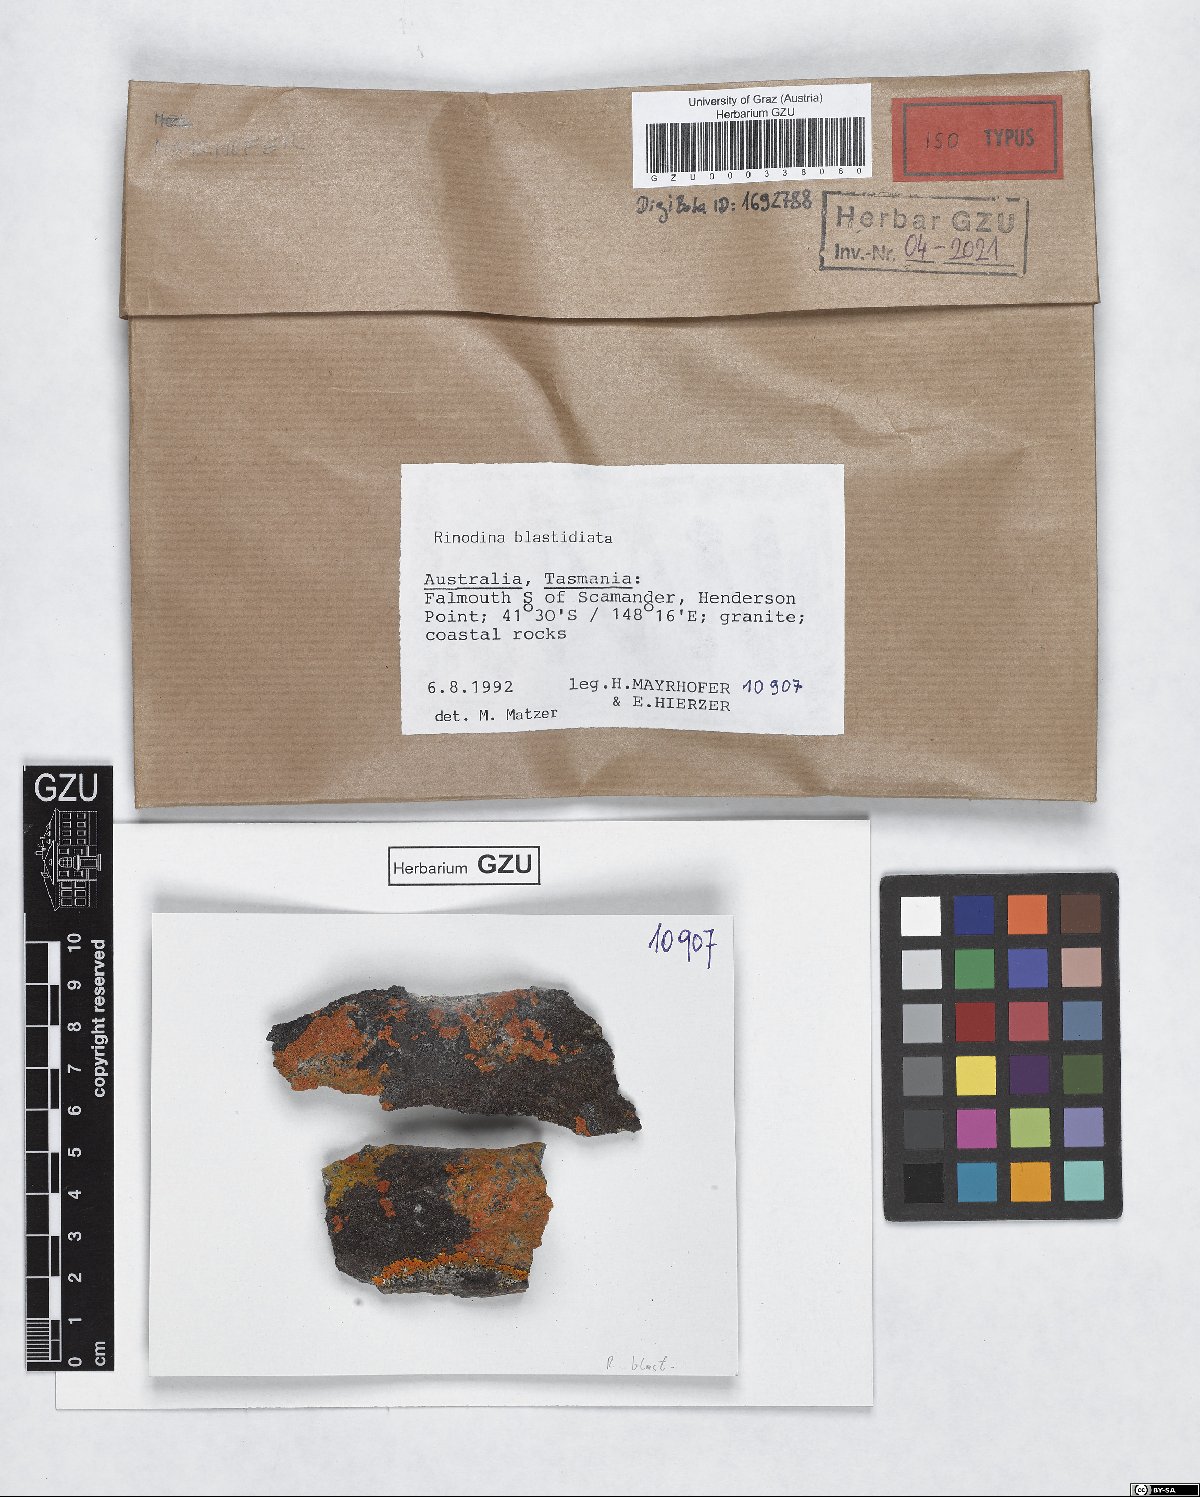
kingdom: Fungi
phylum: Ascomycota
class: Lecanoromycetes
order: Caliciales
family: Physciaceae
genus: Rinodina
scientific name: Rinodina blastidiata
